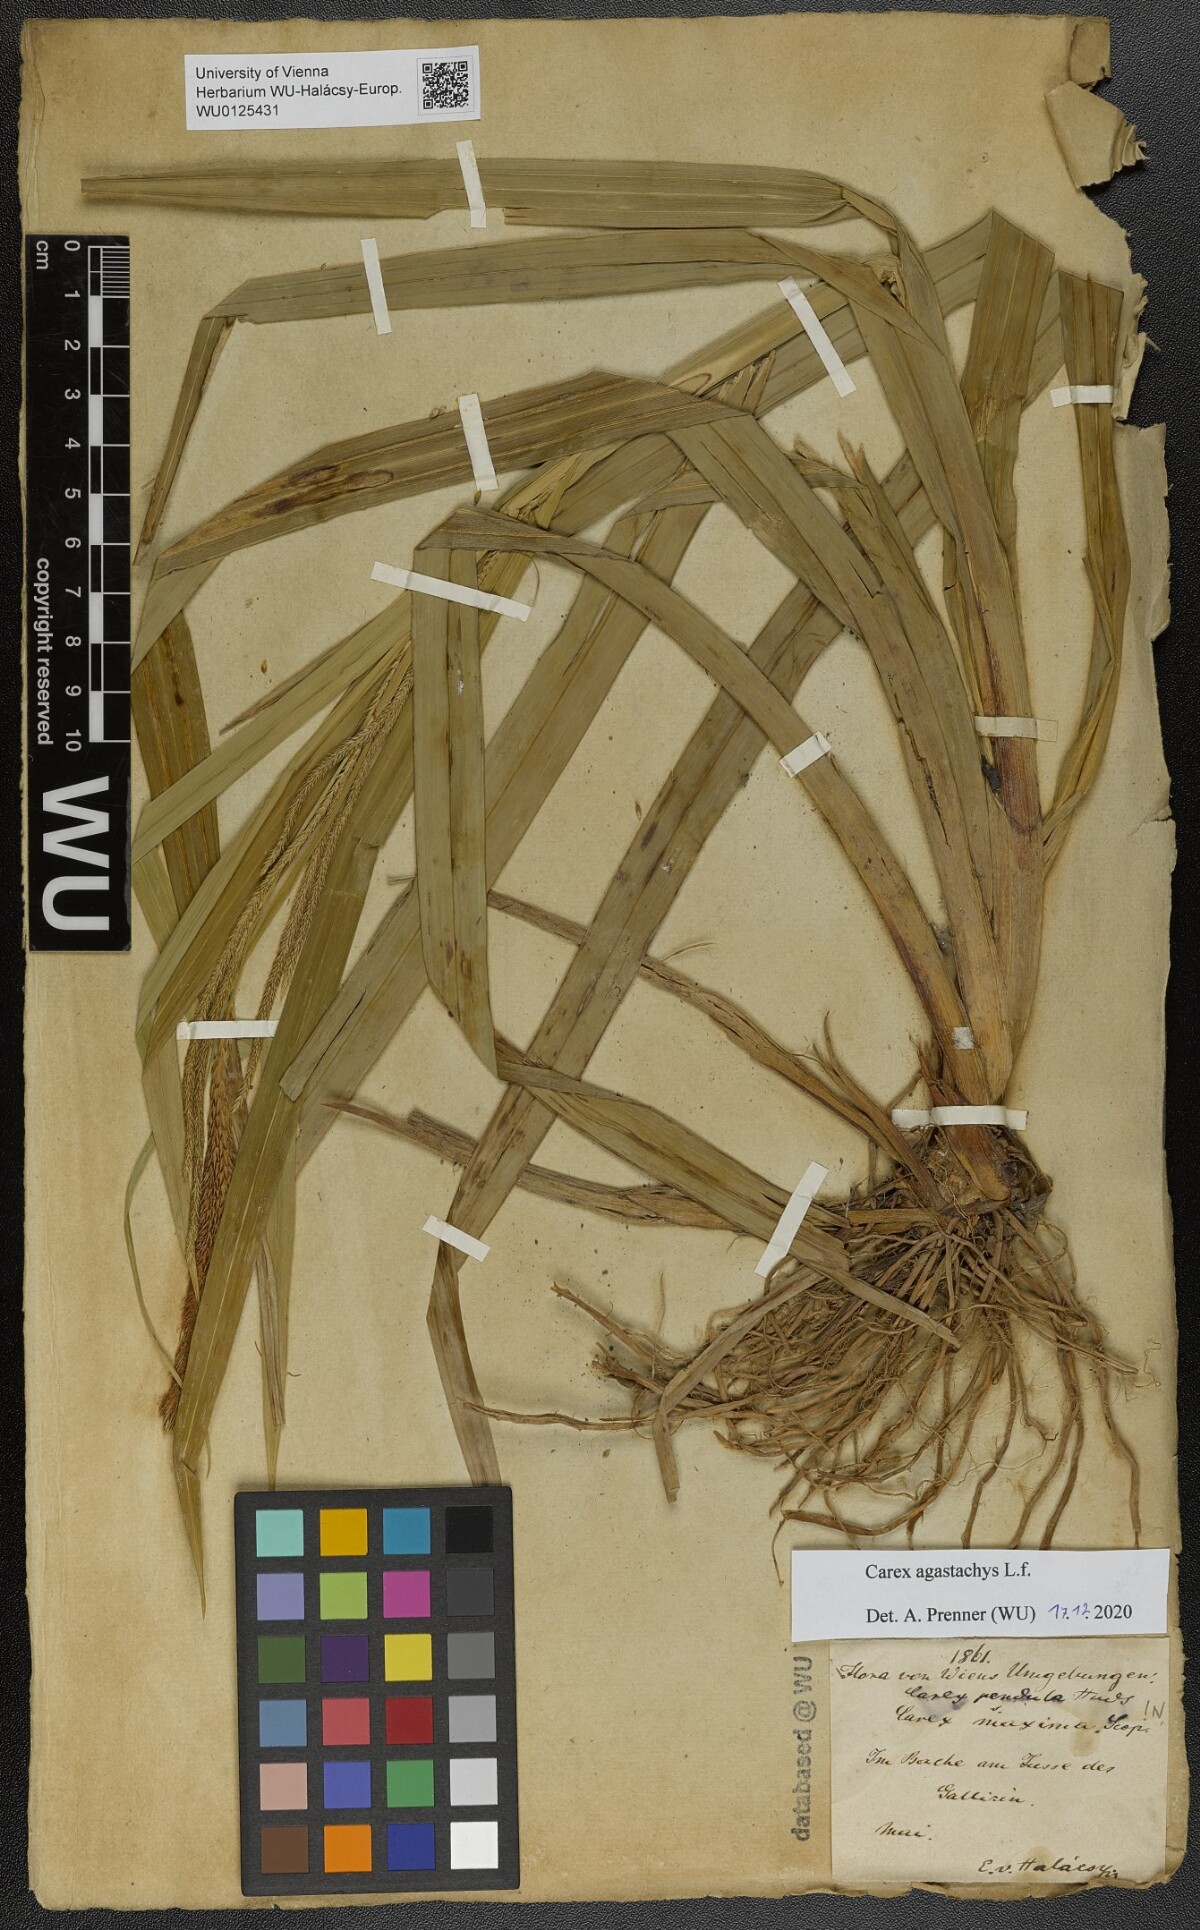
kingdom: Plantae
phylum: Tracheophyta
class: Liliopsida
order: Poales
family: Cyperaceae
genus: Carex
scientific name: Carex agastachys
